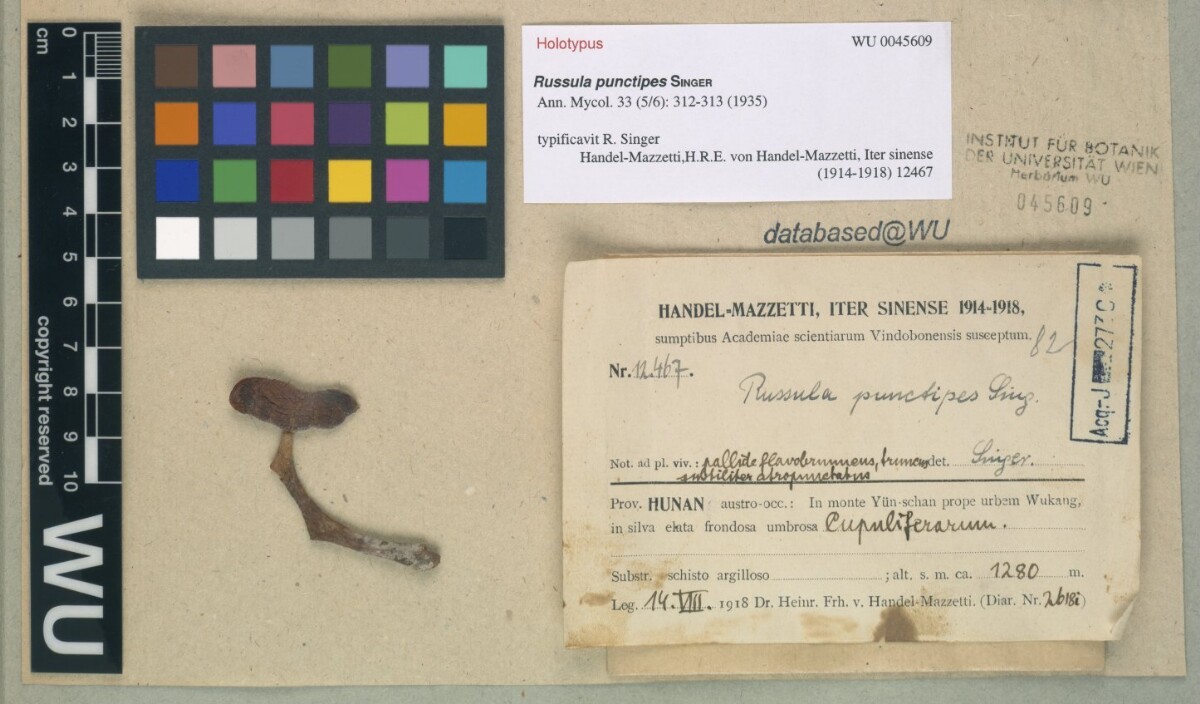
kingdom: Fungi
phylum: Basidiomycota
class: Agaricomycetes
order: Russulales
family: Russulaceae
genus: Russula
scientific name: Russula punctipes
